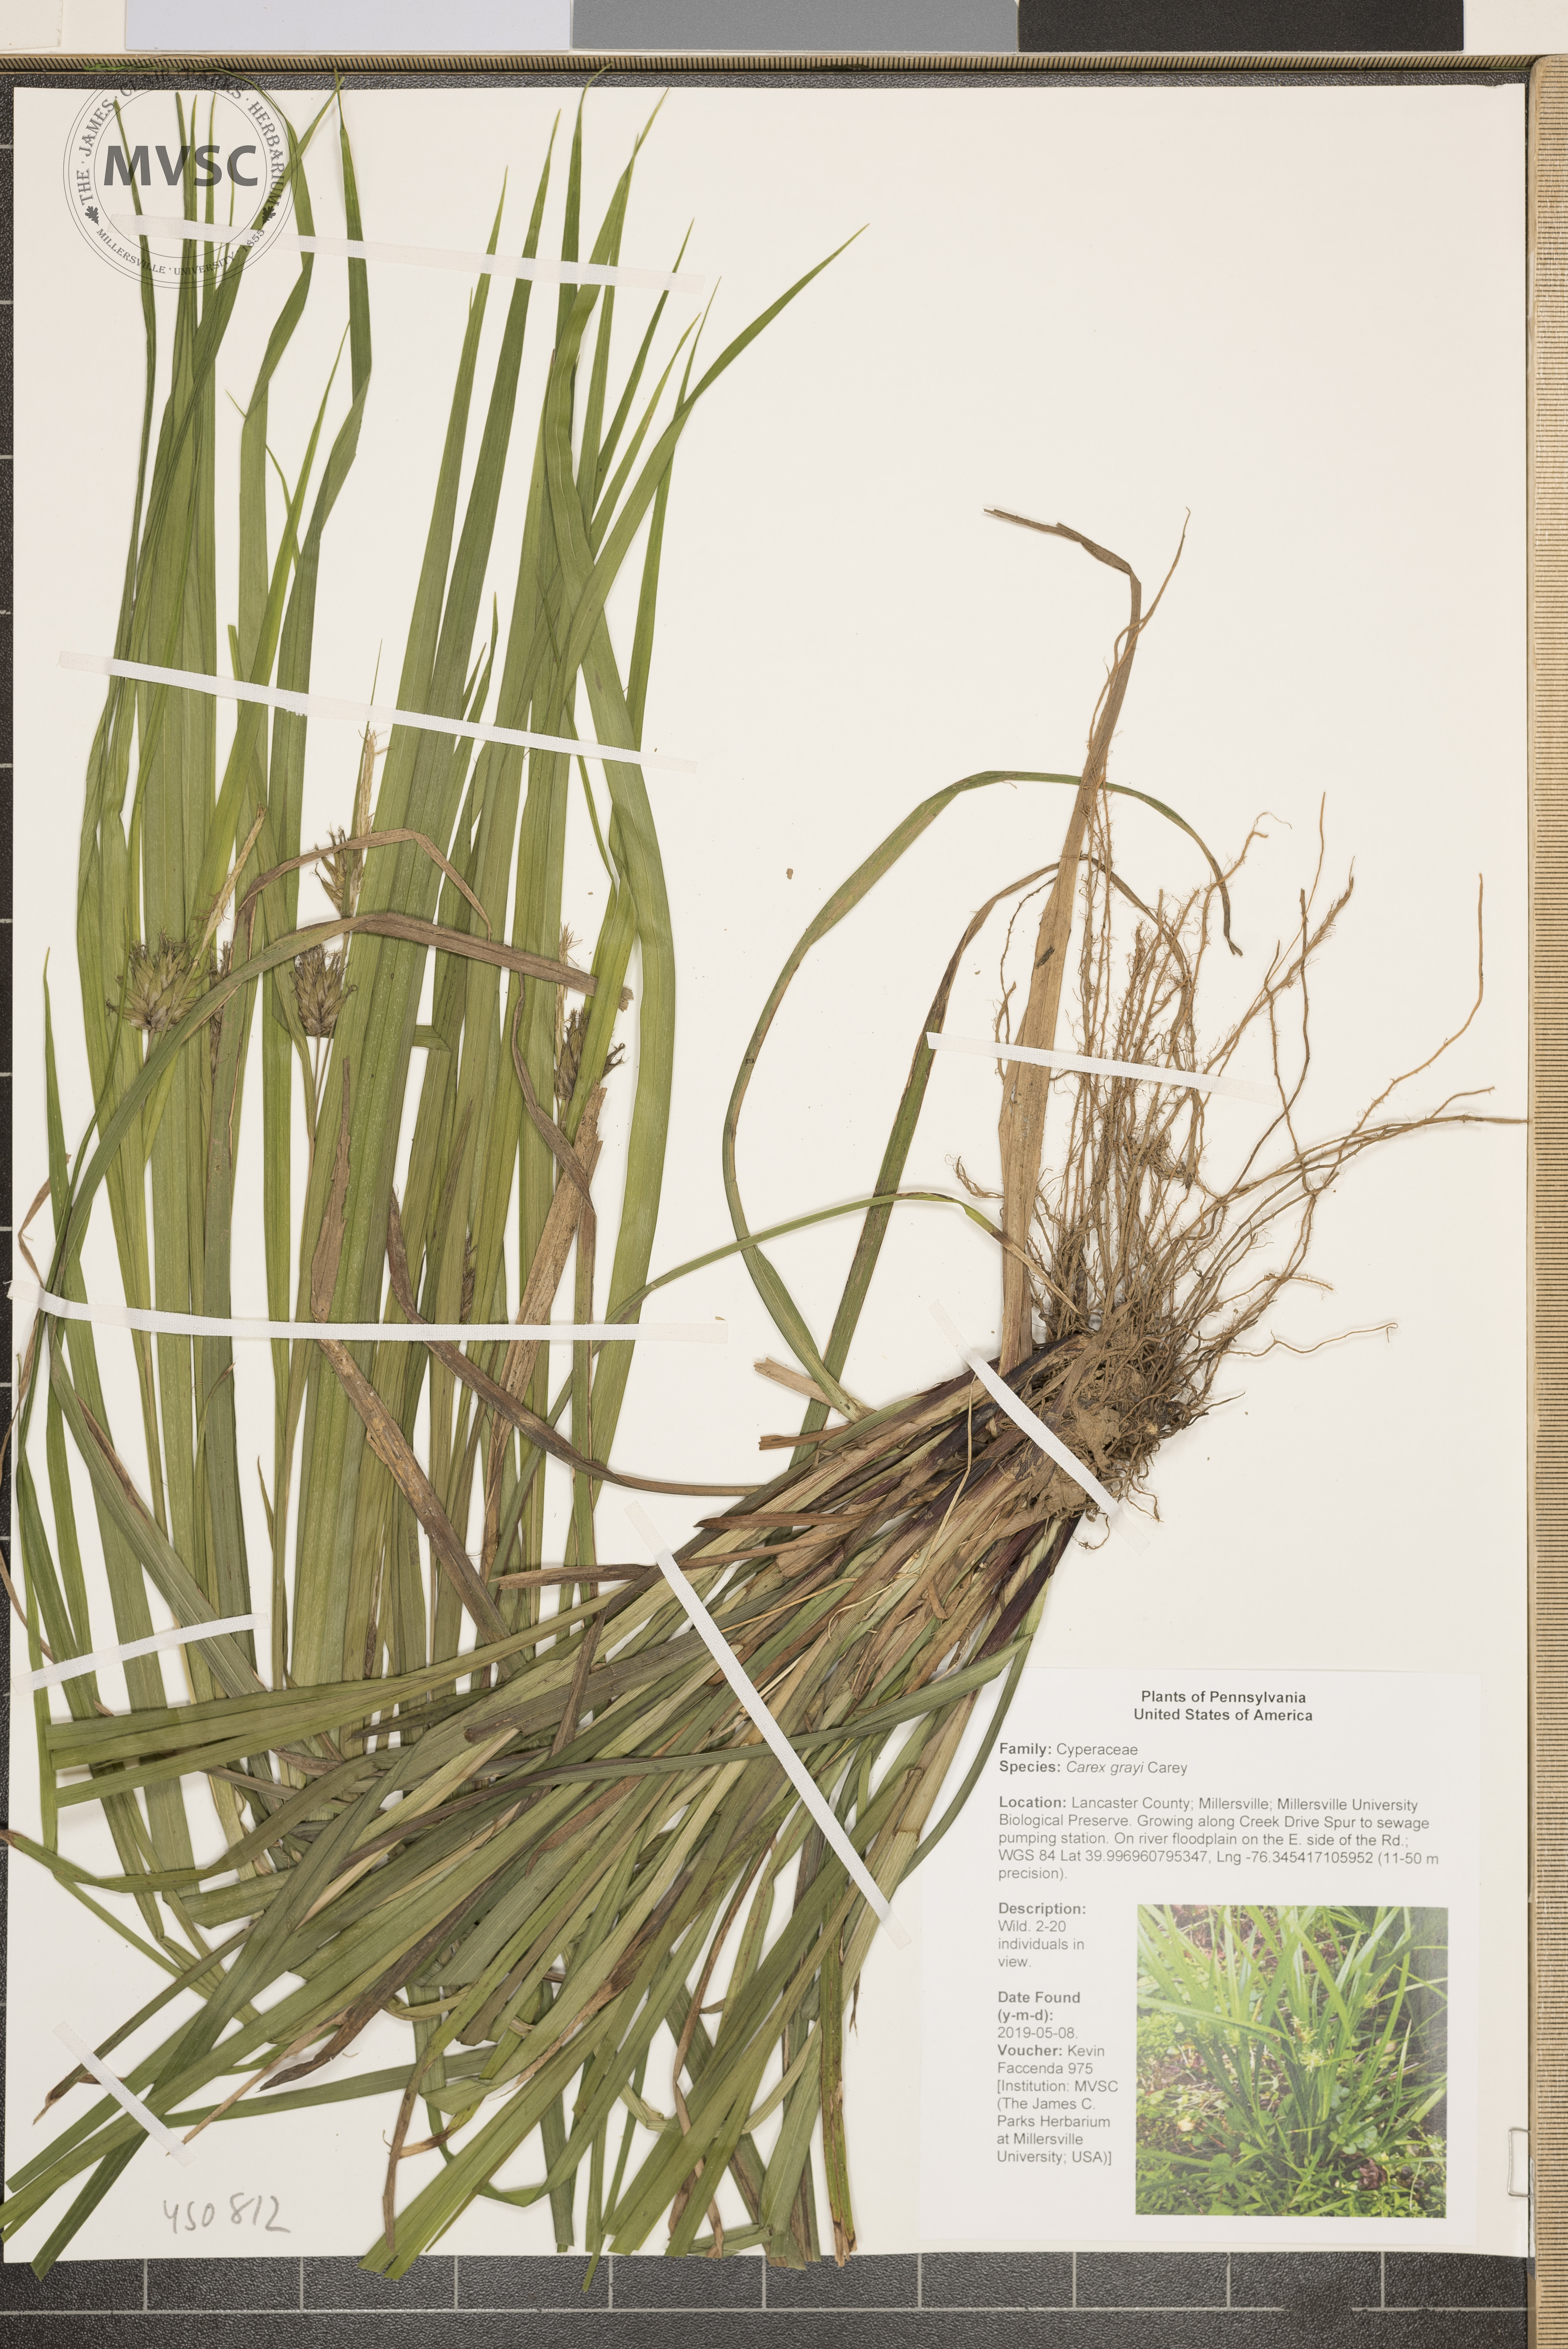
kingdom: Plantae
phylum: Tracheophyta
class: Liliopsida
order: Poales
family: Cyperaceae
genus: Carex
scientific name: Carex grayi
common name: Asa gray's sedge
